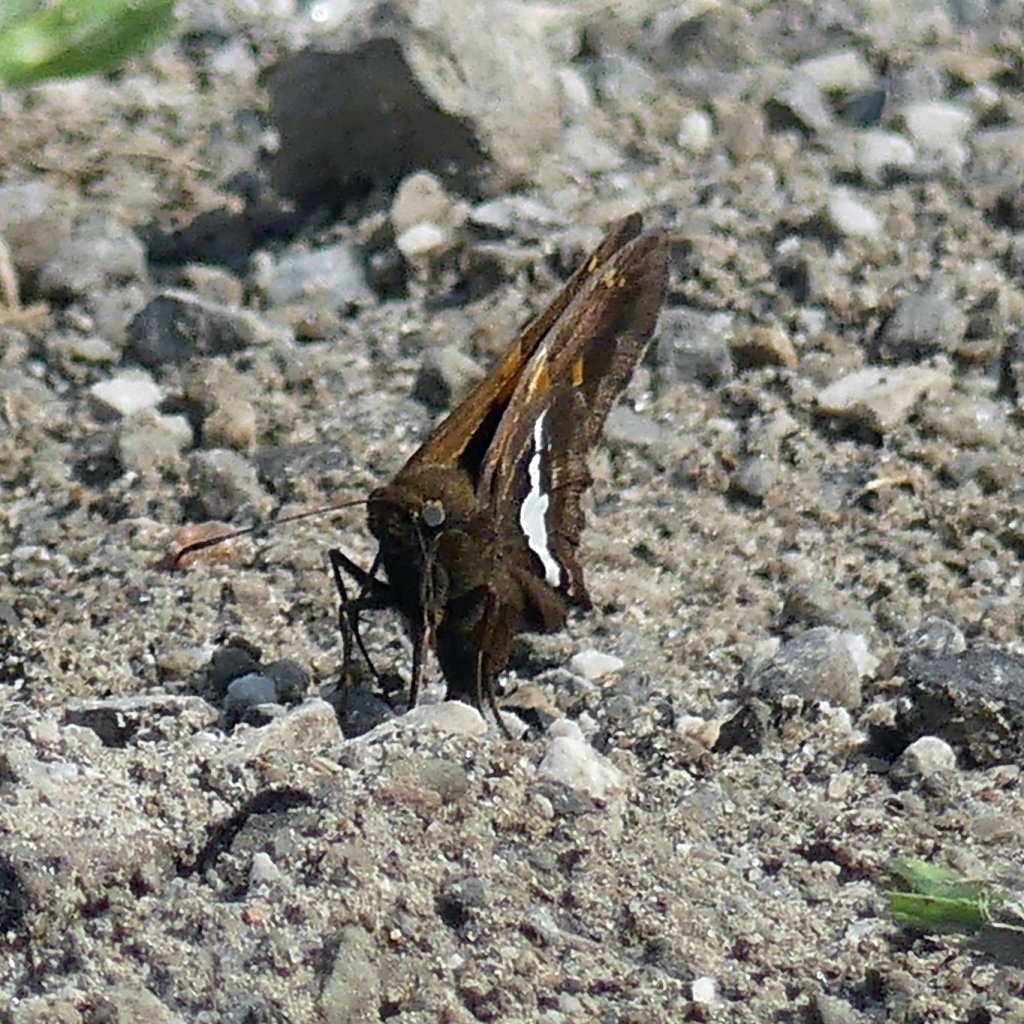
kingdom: Animalia
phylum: Arthropoda
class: Insecta
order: Lepidoptera
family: Hesperiidae
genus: Epargyreus
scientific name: Epargyreus clarus
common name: Silver-spotted Skipper
